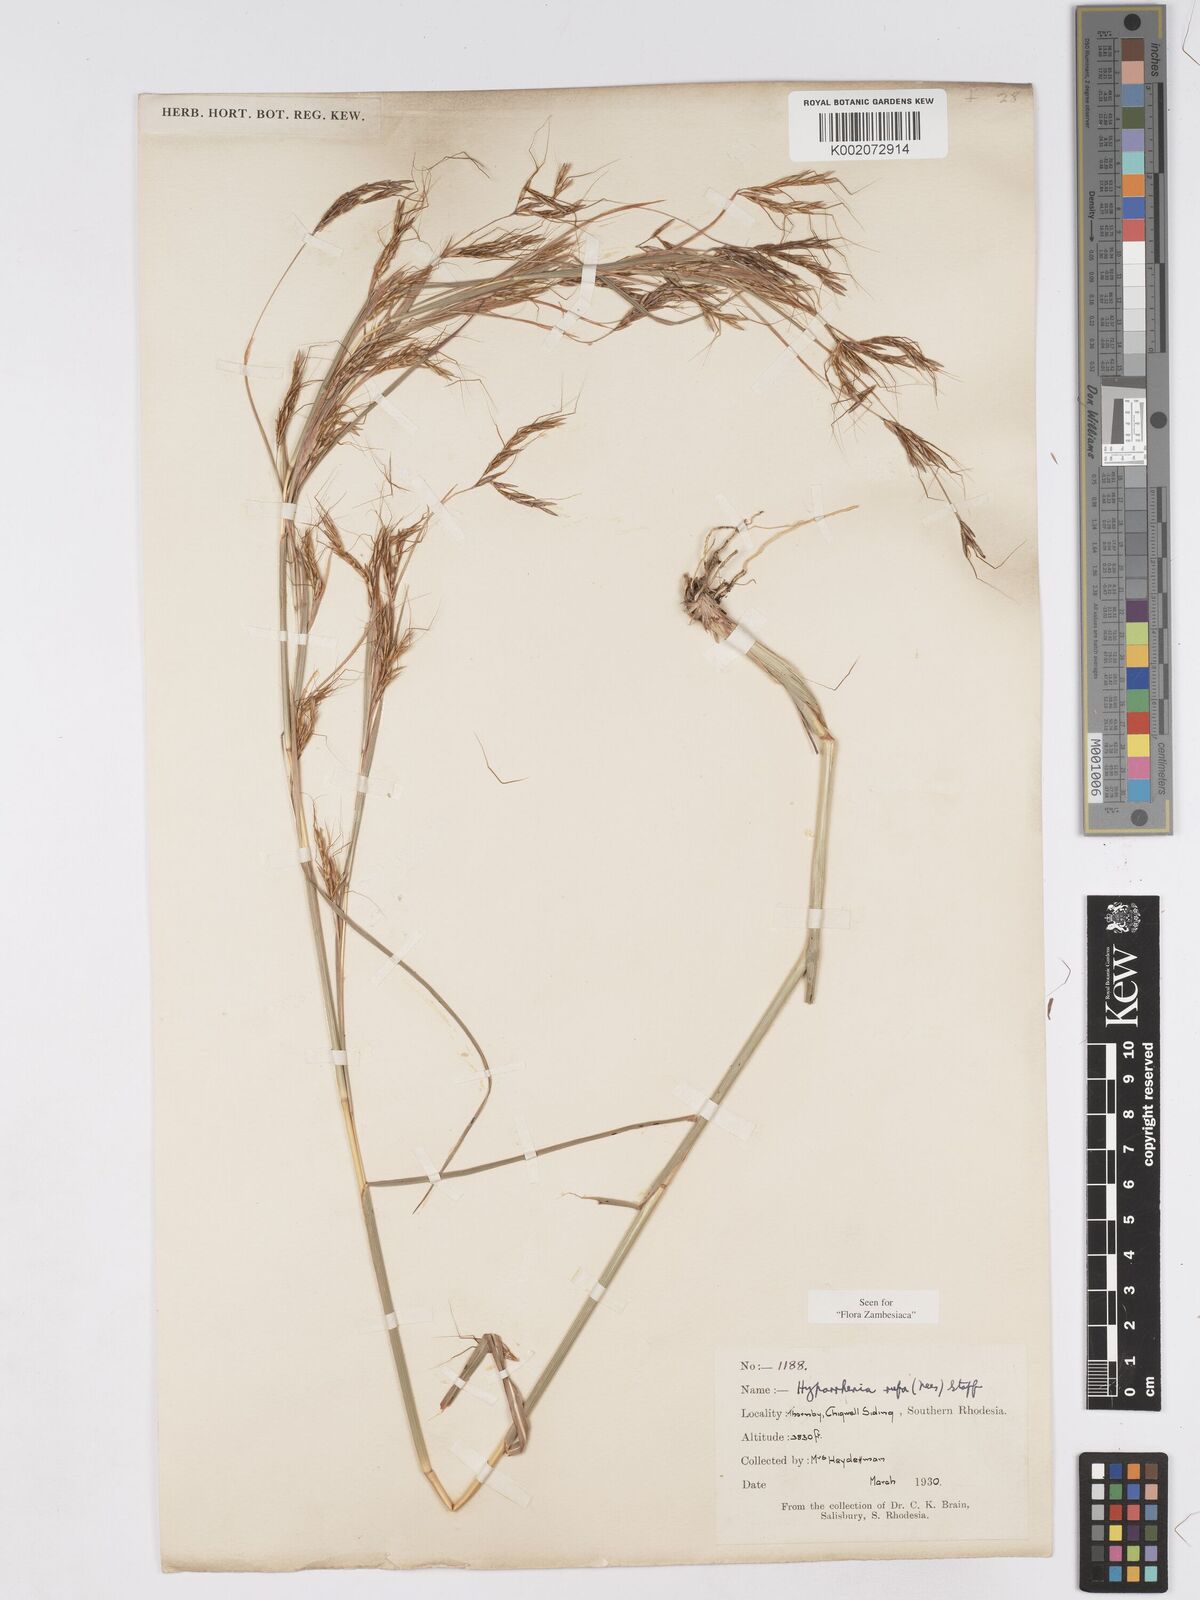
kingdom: Plantae
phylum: Tracheophyta
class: Liliopsida
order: Poales
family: Poaceae
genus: Hyparrhenia
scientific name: Hyparrhenia rufa
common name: Jaraguagrass
